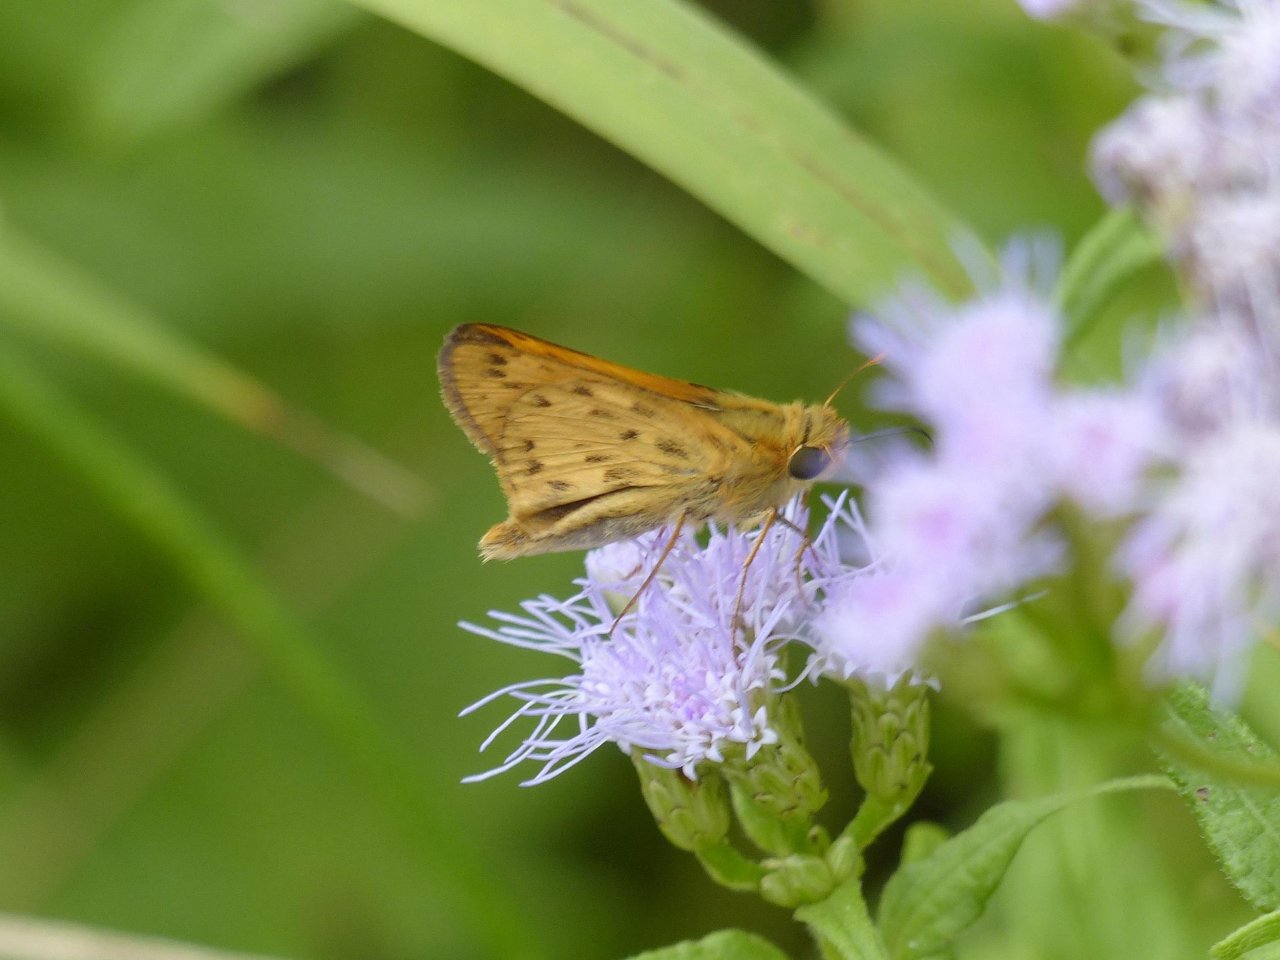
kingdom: Animalia
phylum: Arthropoda
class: Insecta
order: Lepidoptera
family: Hesperiidae
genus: Hylephila
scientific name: Hylephila phyleus
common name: Fiery Skipper
